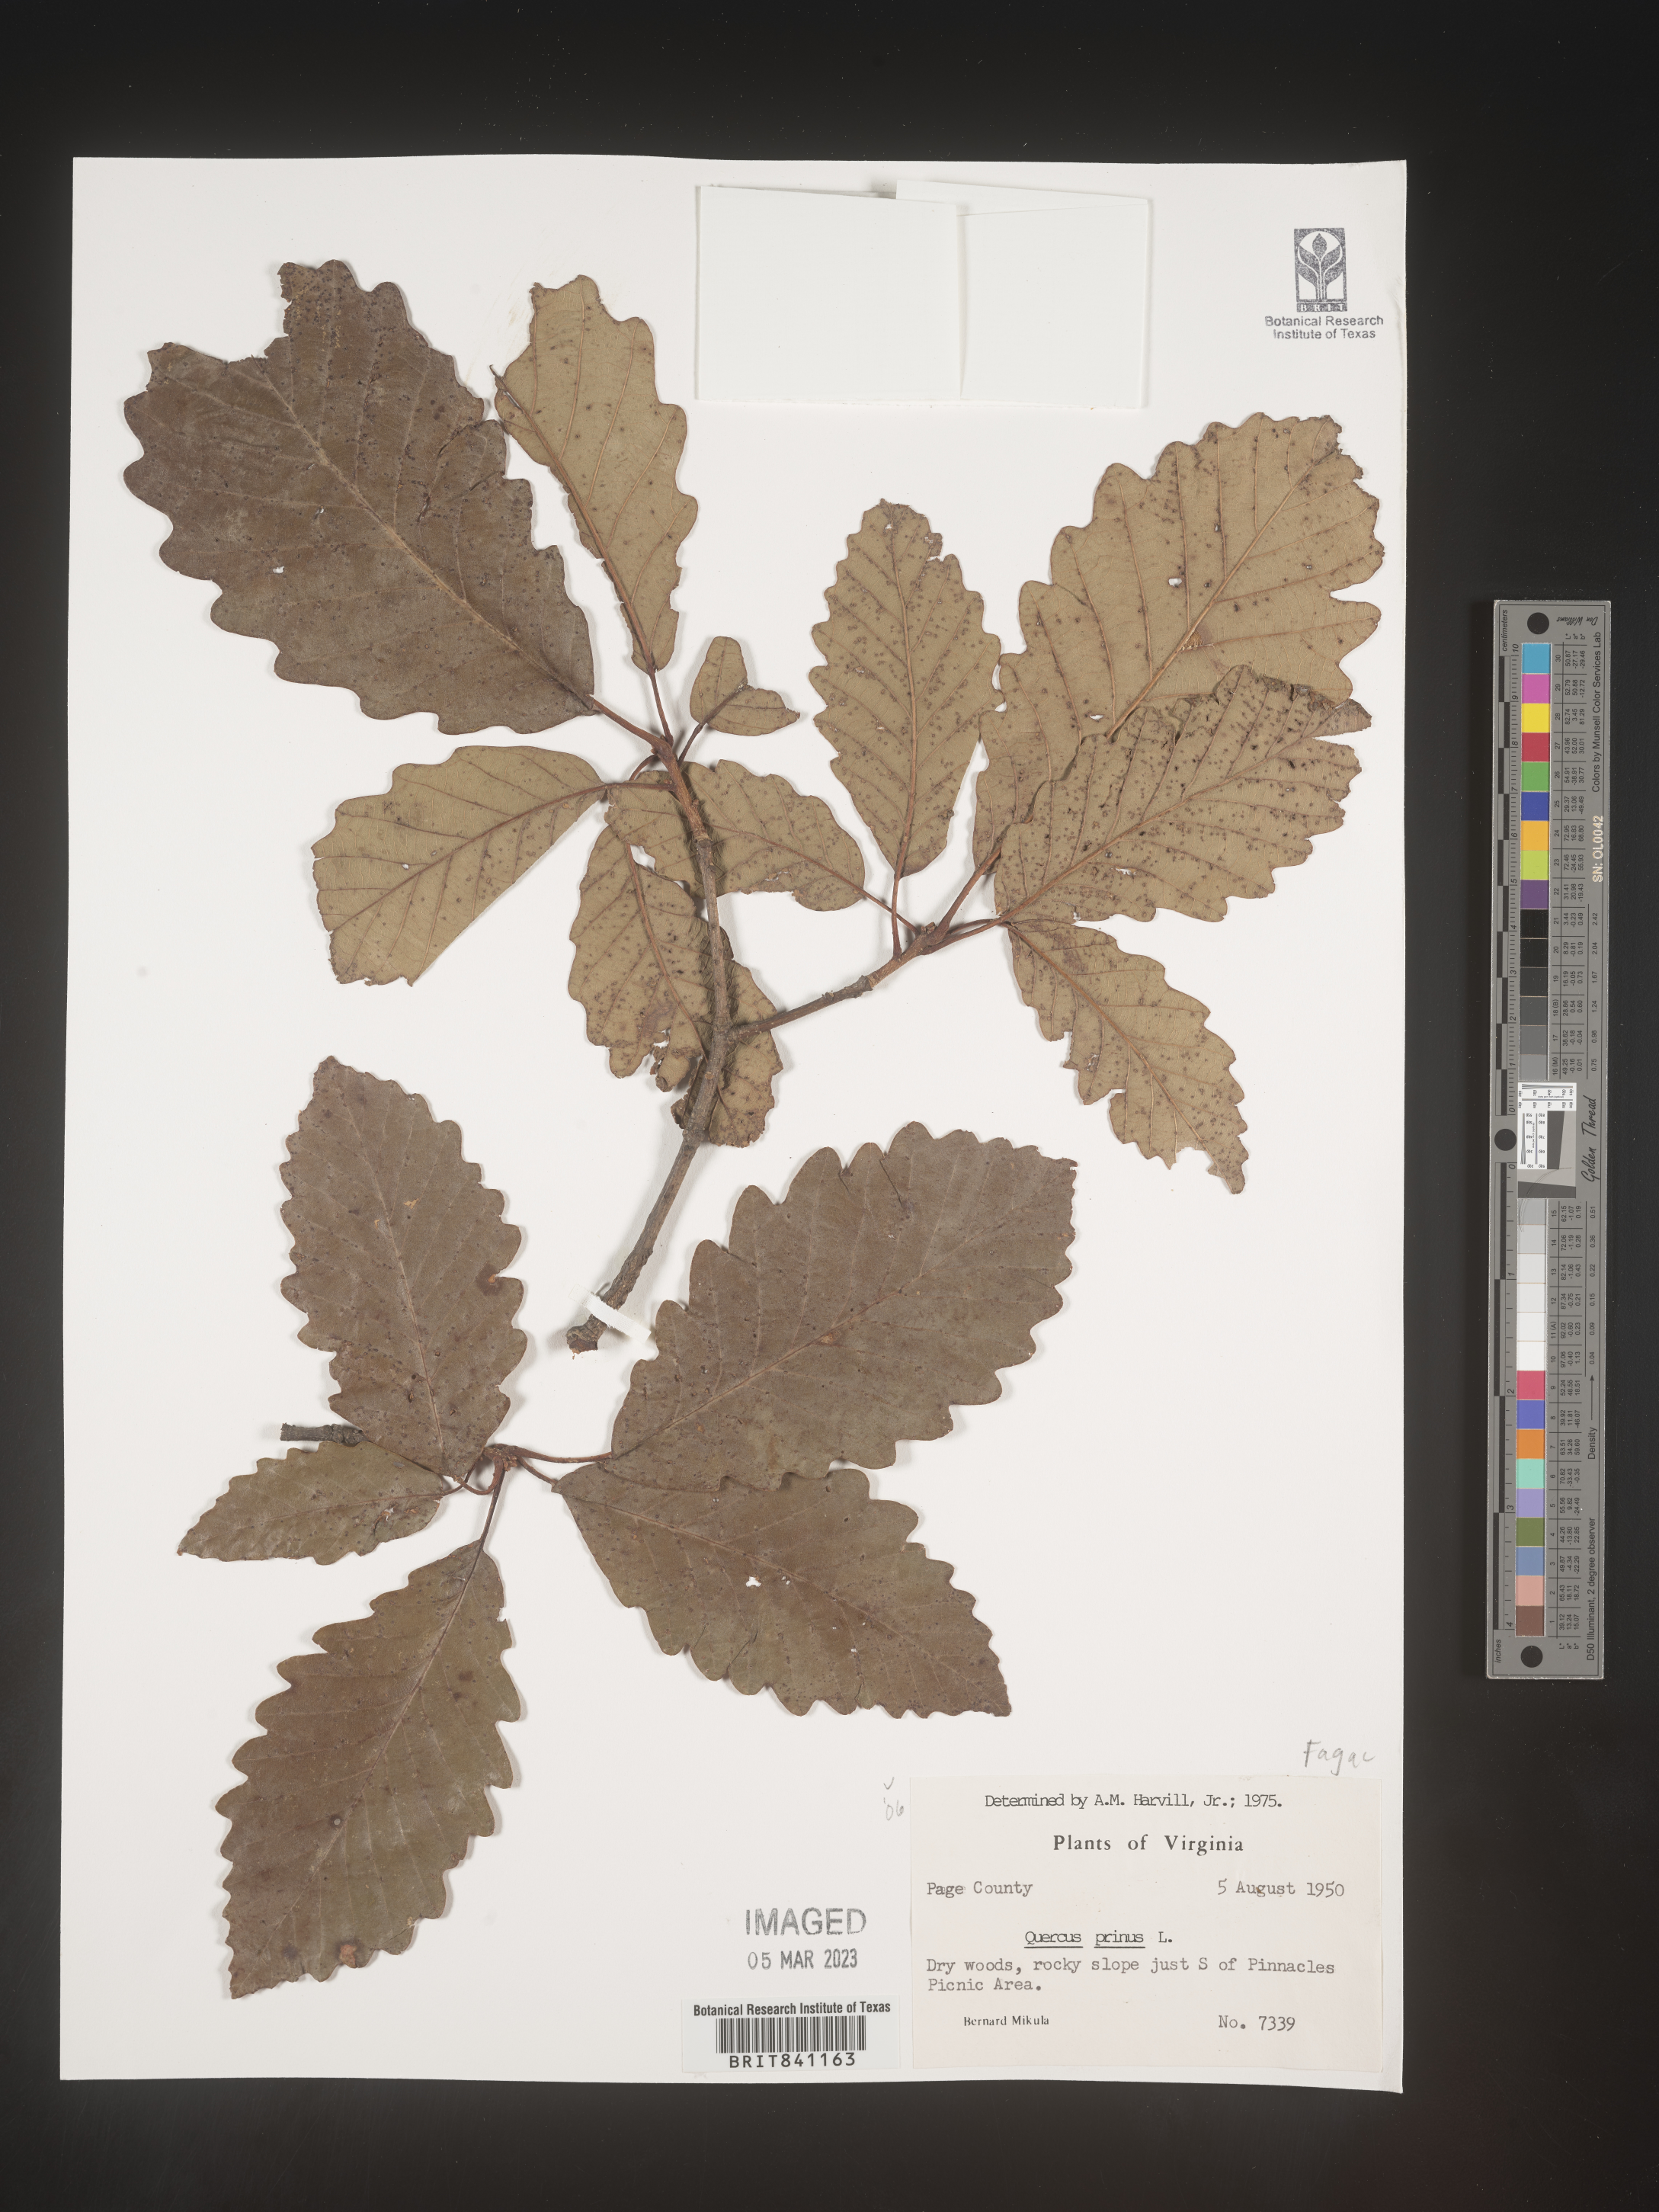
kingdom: Plantae
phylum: Tracheophyta
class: Magnoliopsida
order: Fagales
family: Fagaceae
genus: Quercus
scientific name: Quercus michauxii
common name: Swamp chestnut oak
